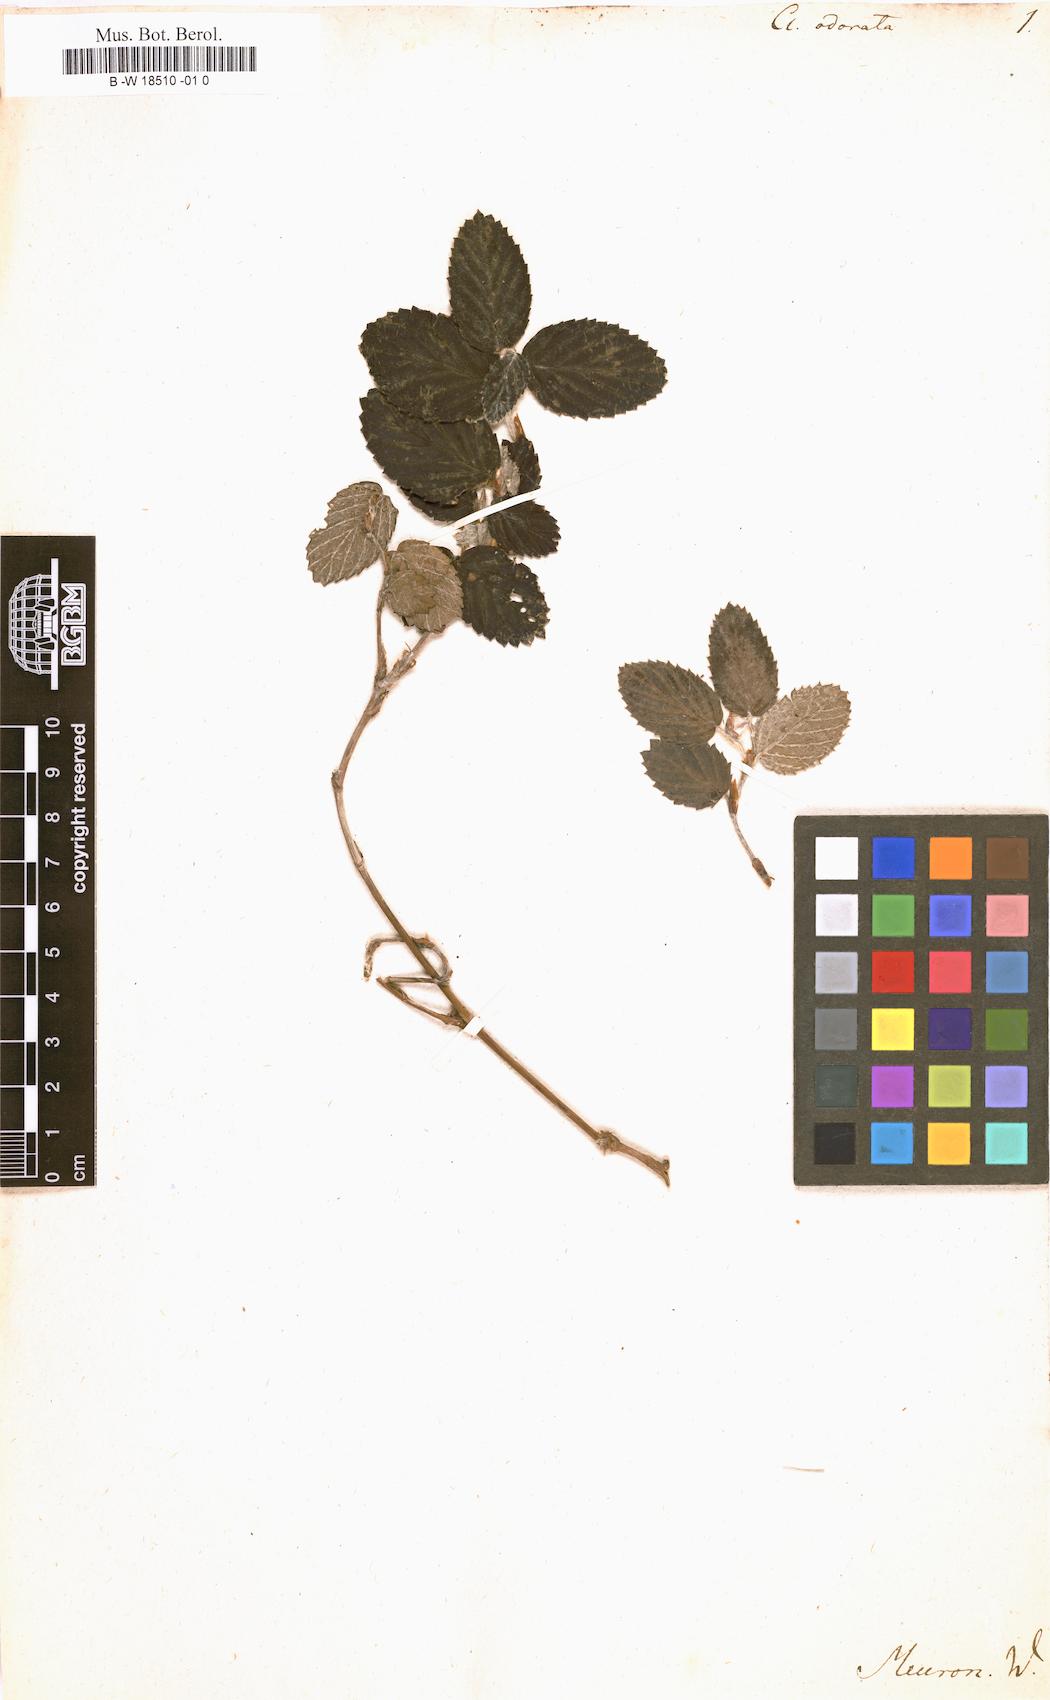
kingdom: Plantae
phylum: Tracheophyta
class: Magnoliopsida
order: Rosales
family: Rosaceae
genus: Cliffortia
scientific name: Cliffortia odorata
